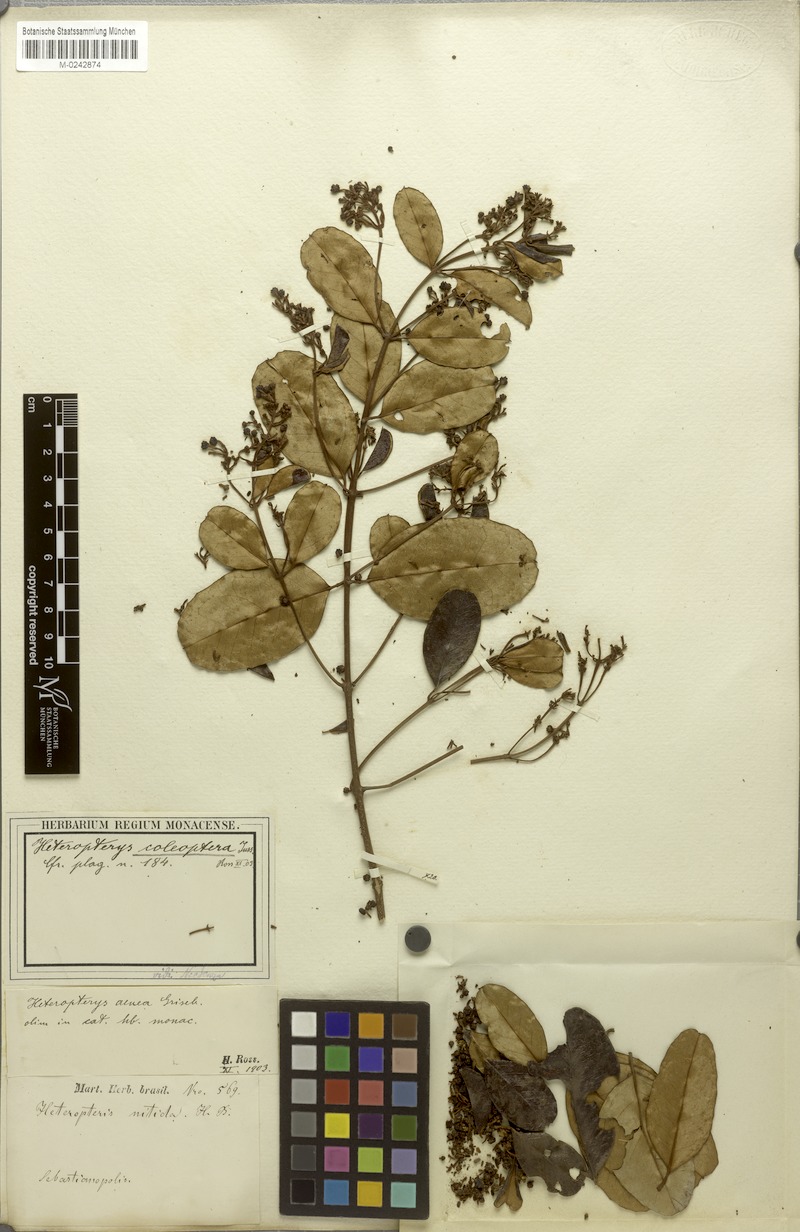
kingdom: Plantae
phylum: Tracheophyta
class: Magnoliopsida
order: Malpighiales
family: Malpighiaceae
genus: Heteropterys
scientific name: Heteropterys coleoptera
